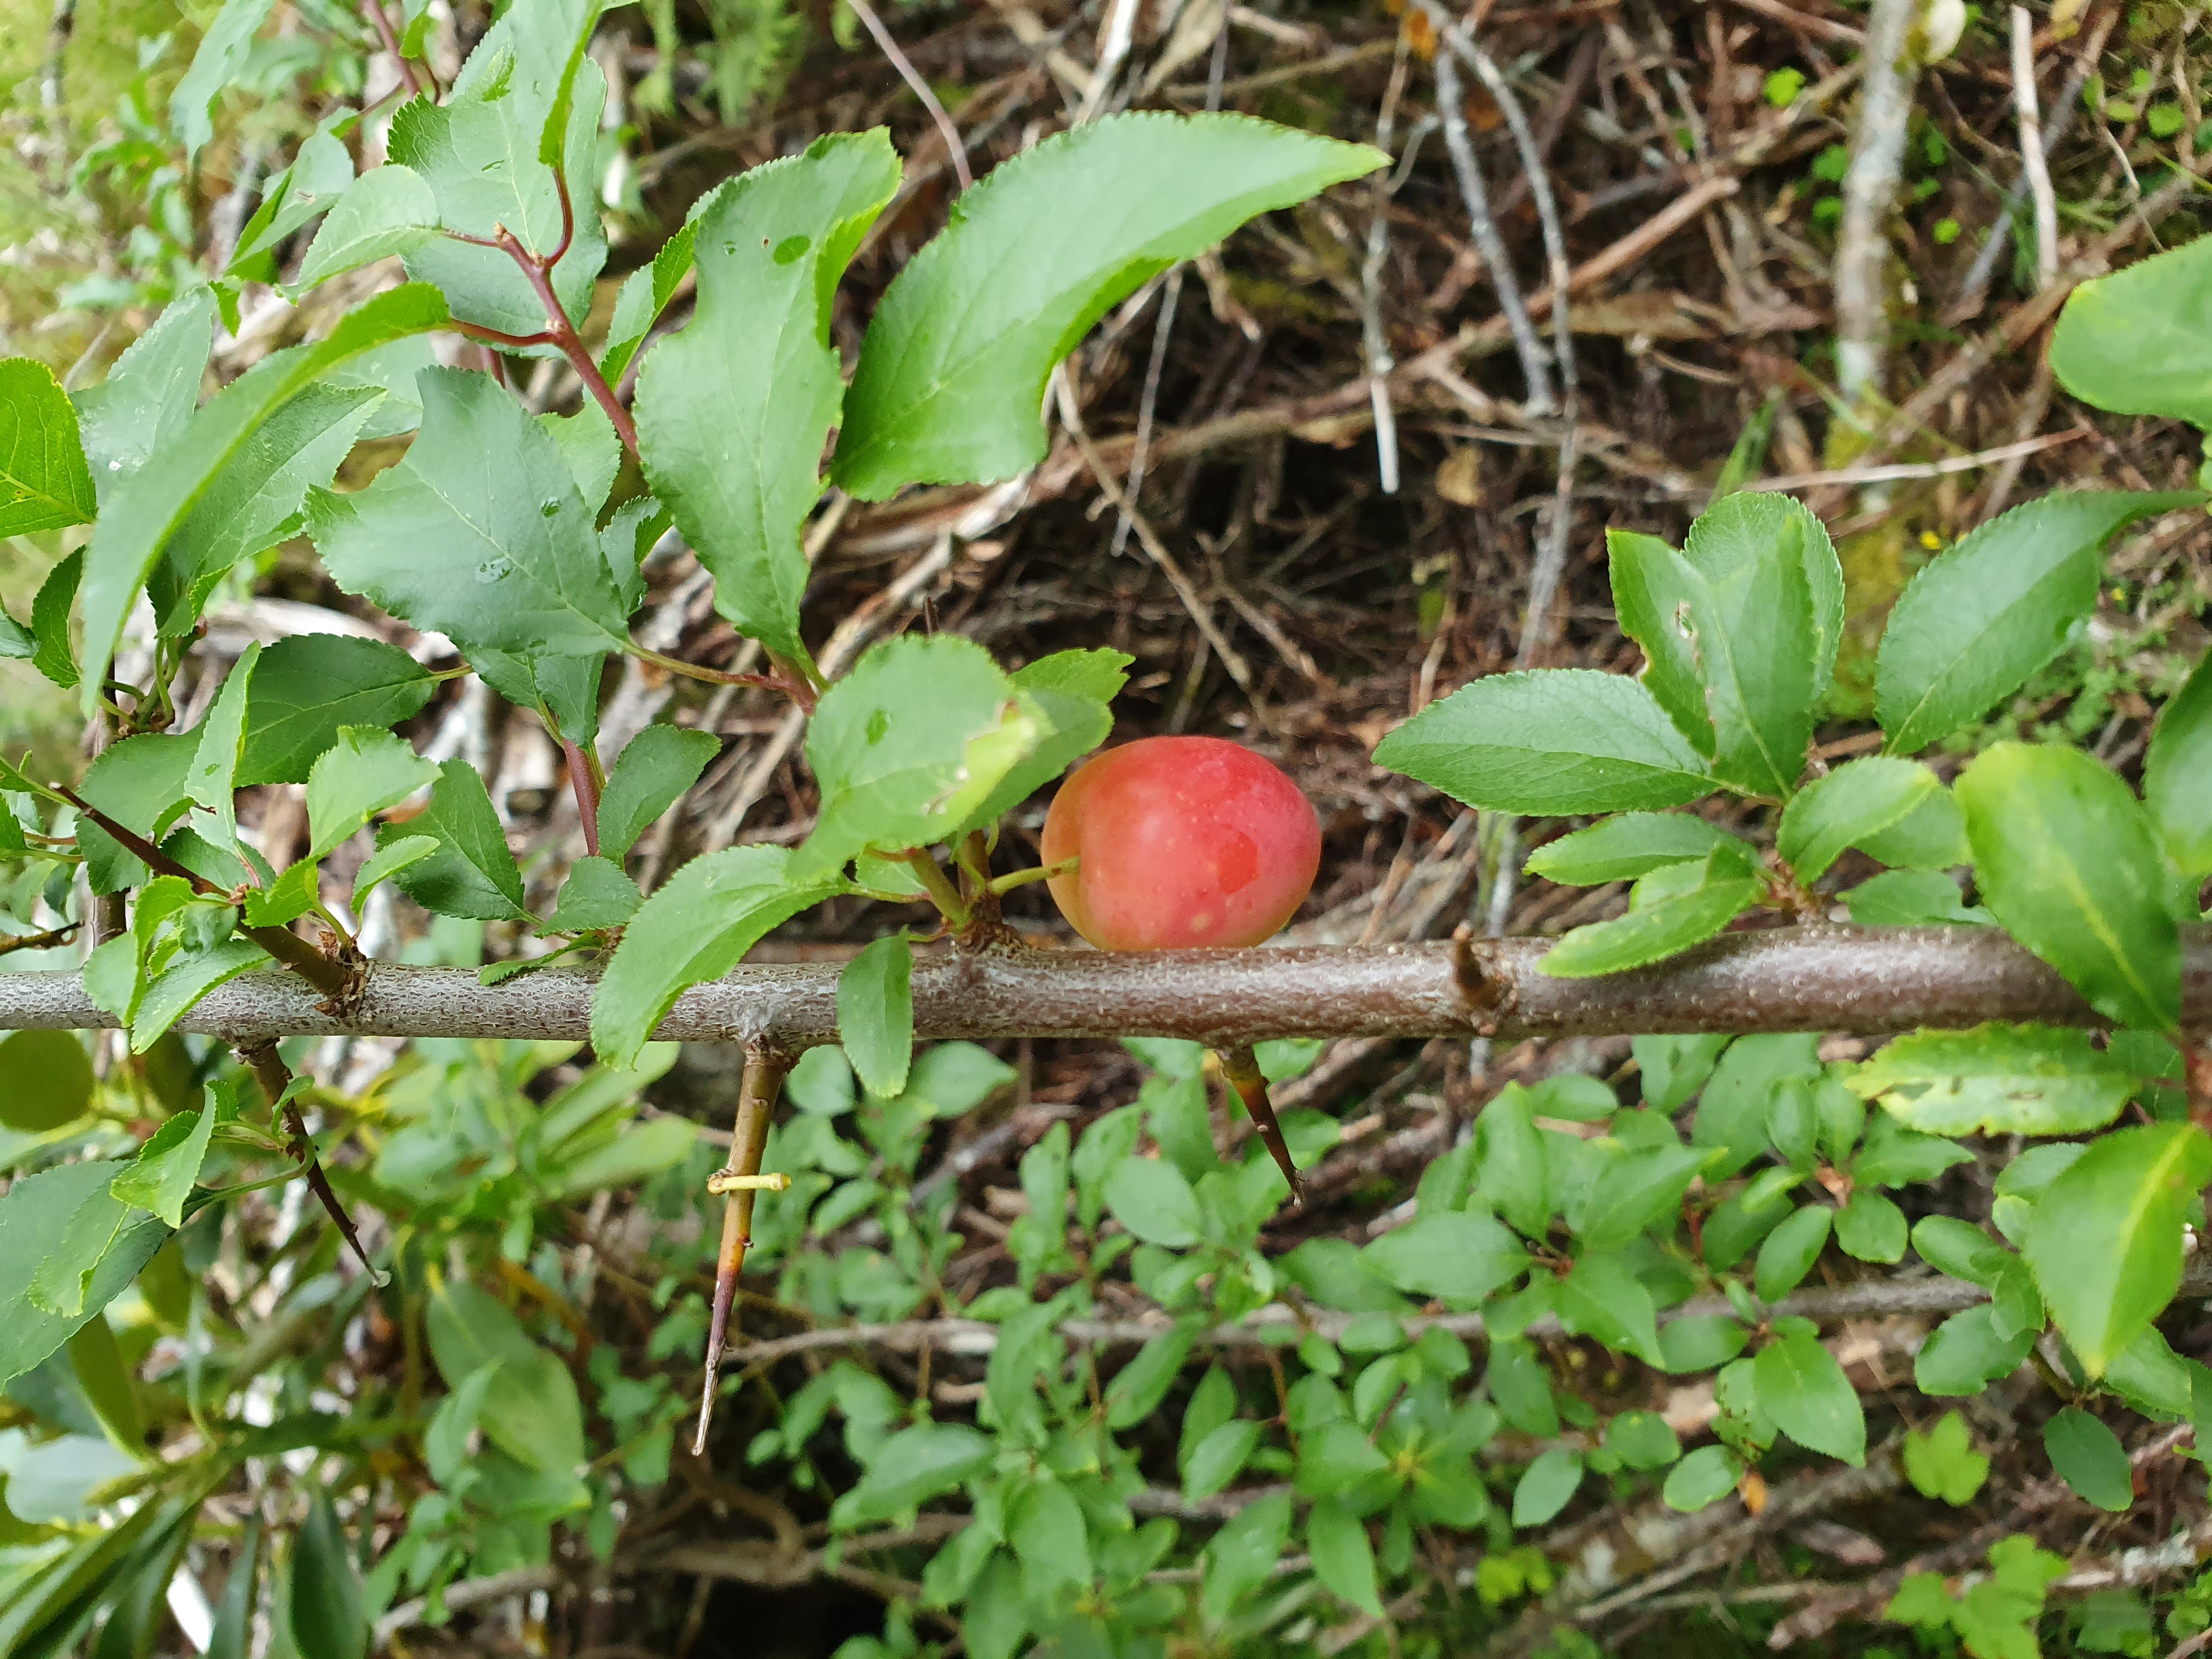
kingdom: Plantae
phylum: Tracheophyta
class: Magnoliopsida
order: Rosales
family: Rosaceae
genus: Prunus
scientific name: Prunus domestica
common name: Wild plum
